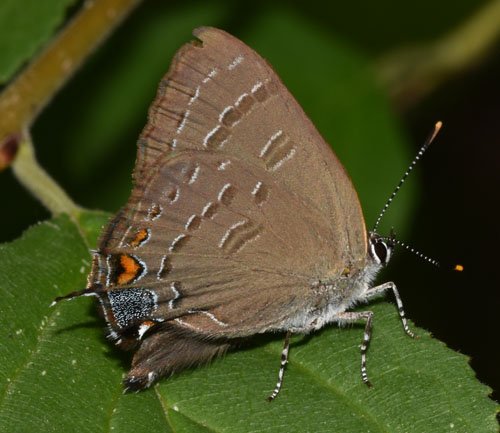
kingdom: Animalia
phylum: Arthropoda
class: Insecta
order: Lepidoptera
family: Lycaenidae
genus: Satyrium
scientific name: Satyrium calanus
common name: Banded Hairstreak
